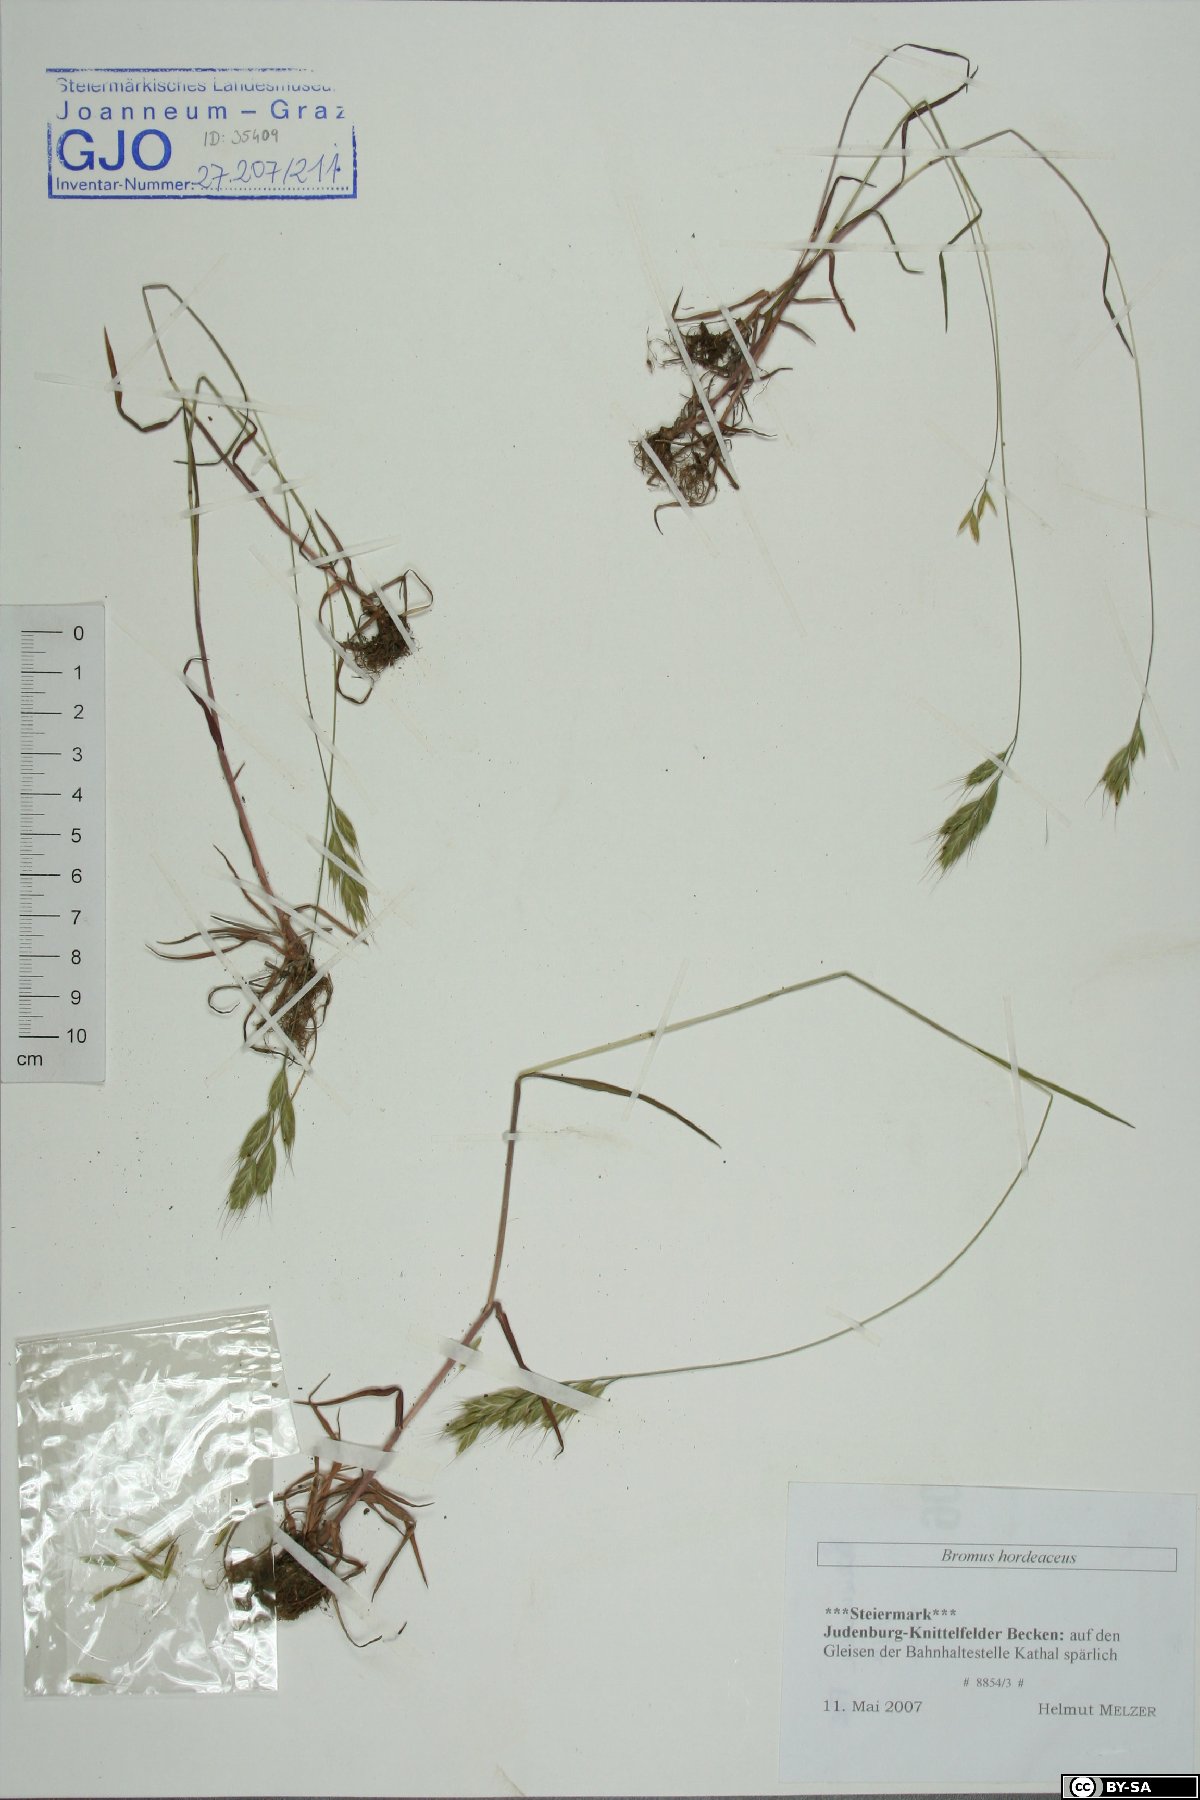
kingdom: Plantae
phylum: Tracheophyta
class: Liliopsida
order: Poales
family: Poaceae
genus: Bromus
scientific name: Bromus hordeaceus
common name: Soft brome
